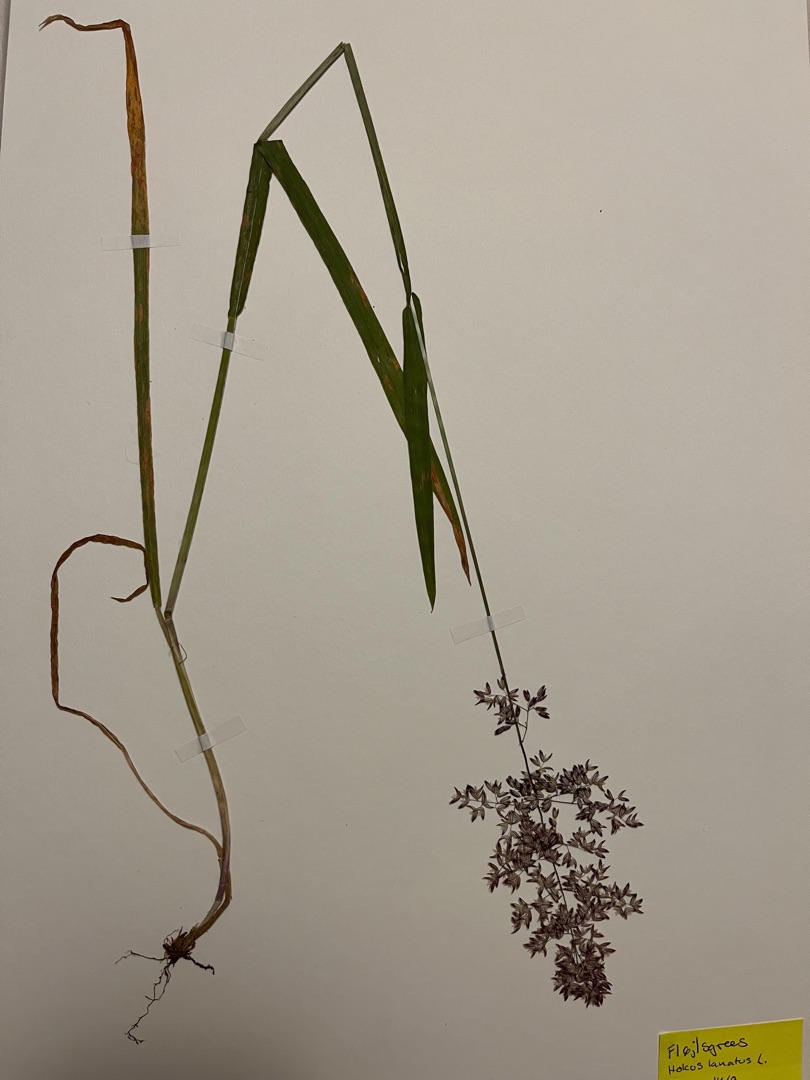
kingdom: Plantae
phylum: Tracheophyta
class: Liliopsida
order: Poales
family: Poaceae
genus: Holcus
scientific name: Holcus lanatus
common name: Fløjlsgræs
